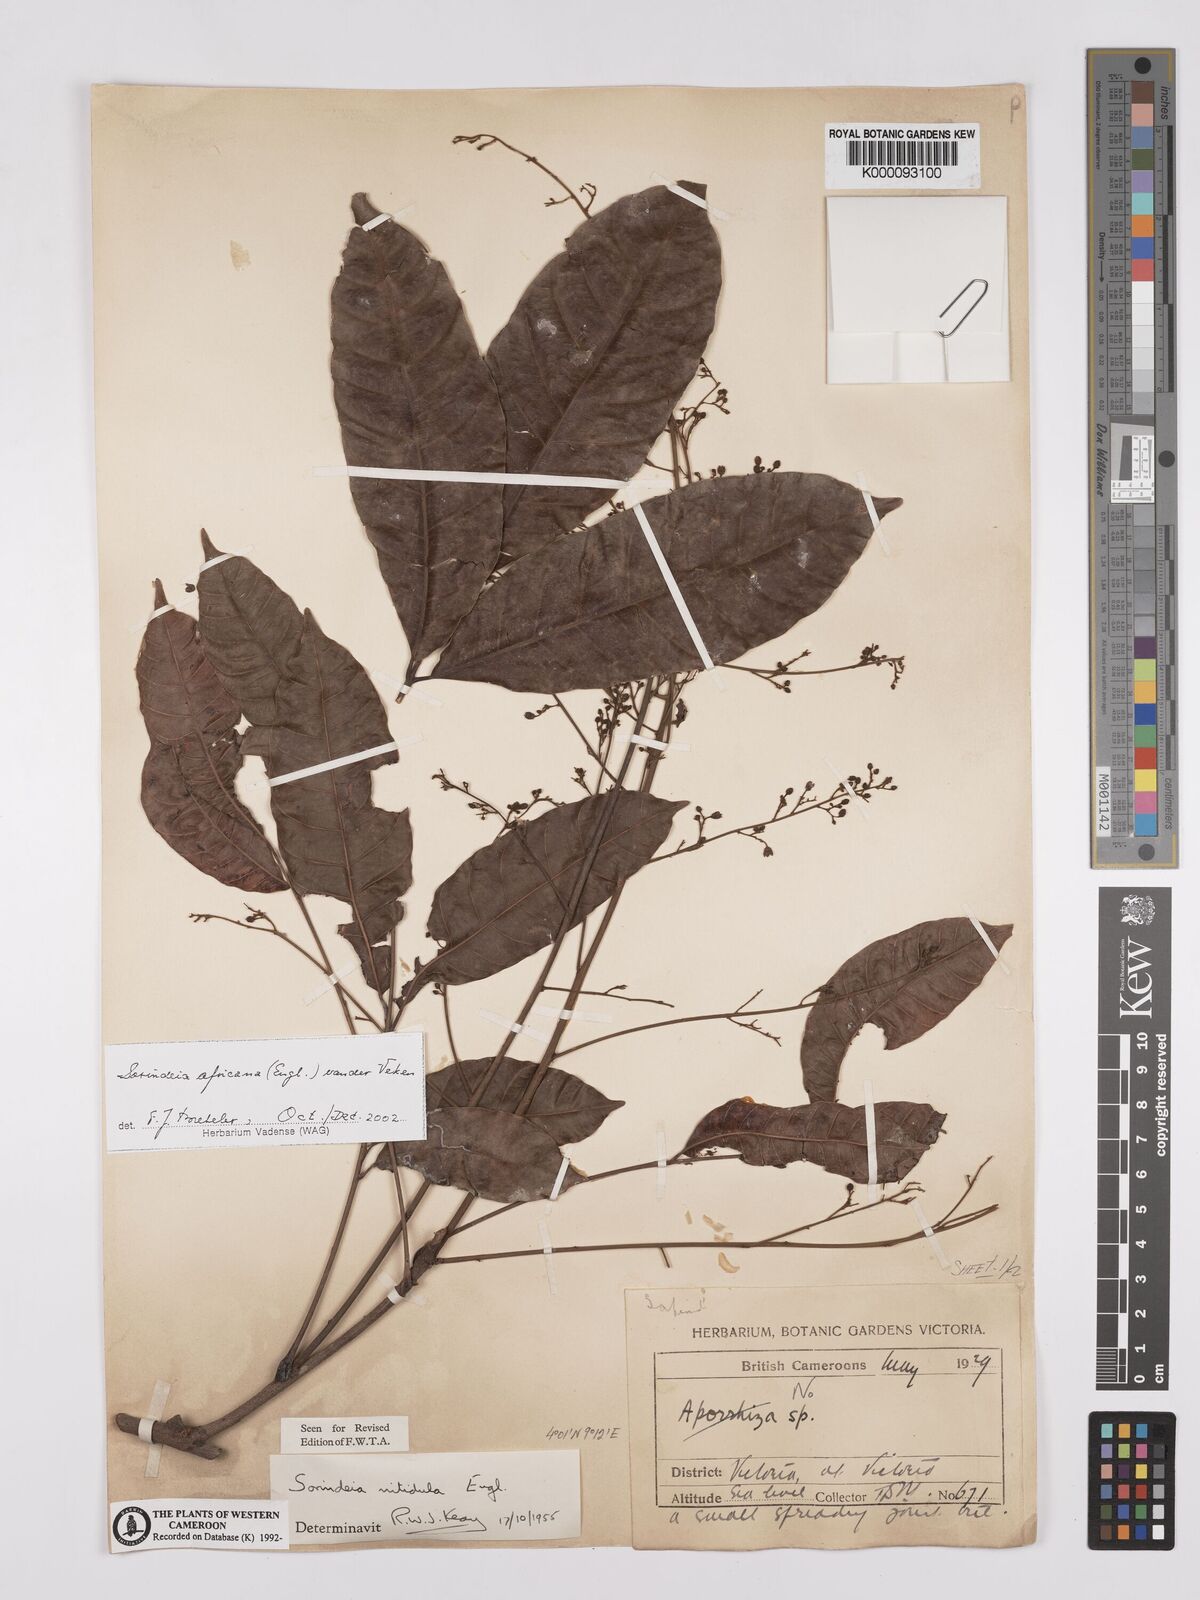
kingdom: Plantae
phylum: Tracheophyta
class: Magnoliopsida
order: Sapindales
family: Anacardiaceae
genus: Sorindeia
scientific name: Sorindeia africana
